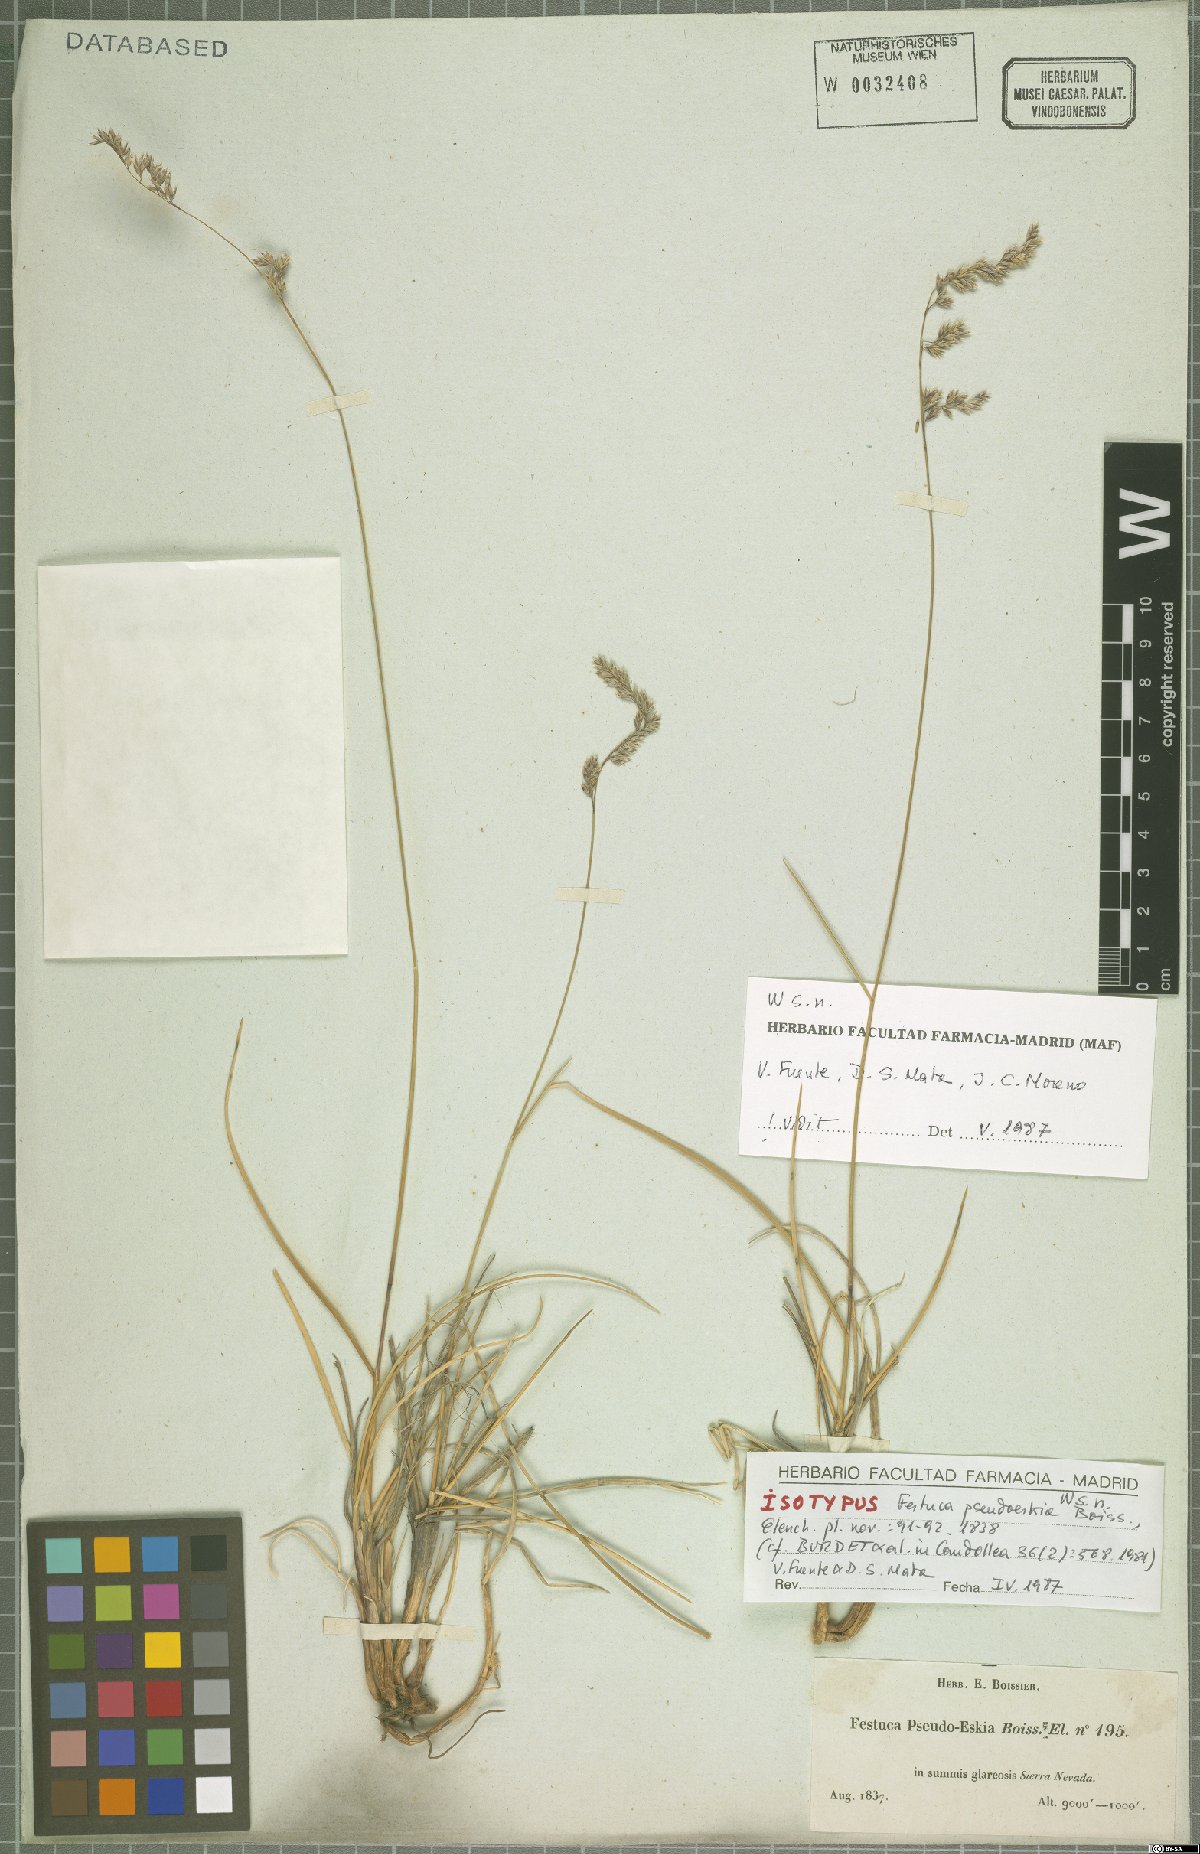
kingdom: Plantae
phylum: Tracheophyta
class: Liliopsida
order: Poales
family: Poaceae
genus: Festuca
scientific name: Festuca pseudeskia
